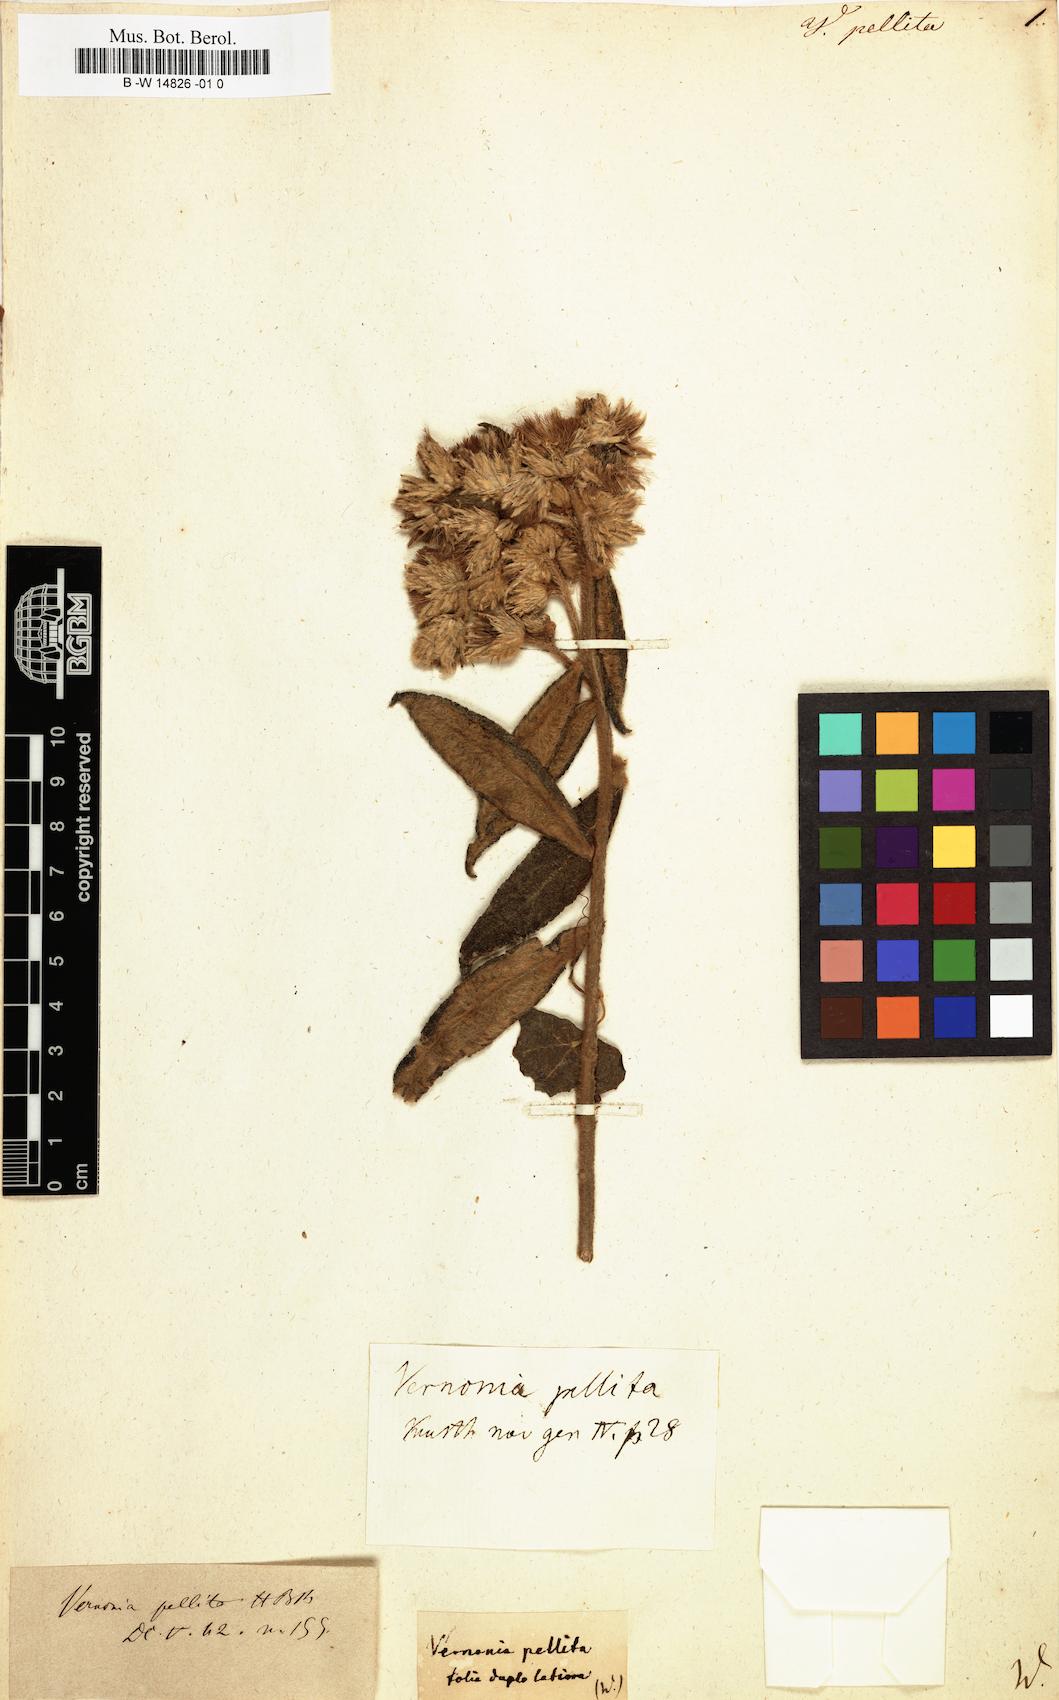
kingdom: Plantae
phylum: Tracheophyta
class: Magnoliopsida
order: Asterales
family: Asteraceae
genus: Lepidaploa
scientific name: Lepidaploa pellita
